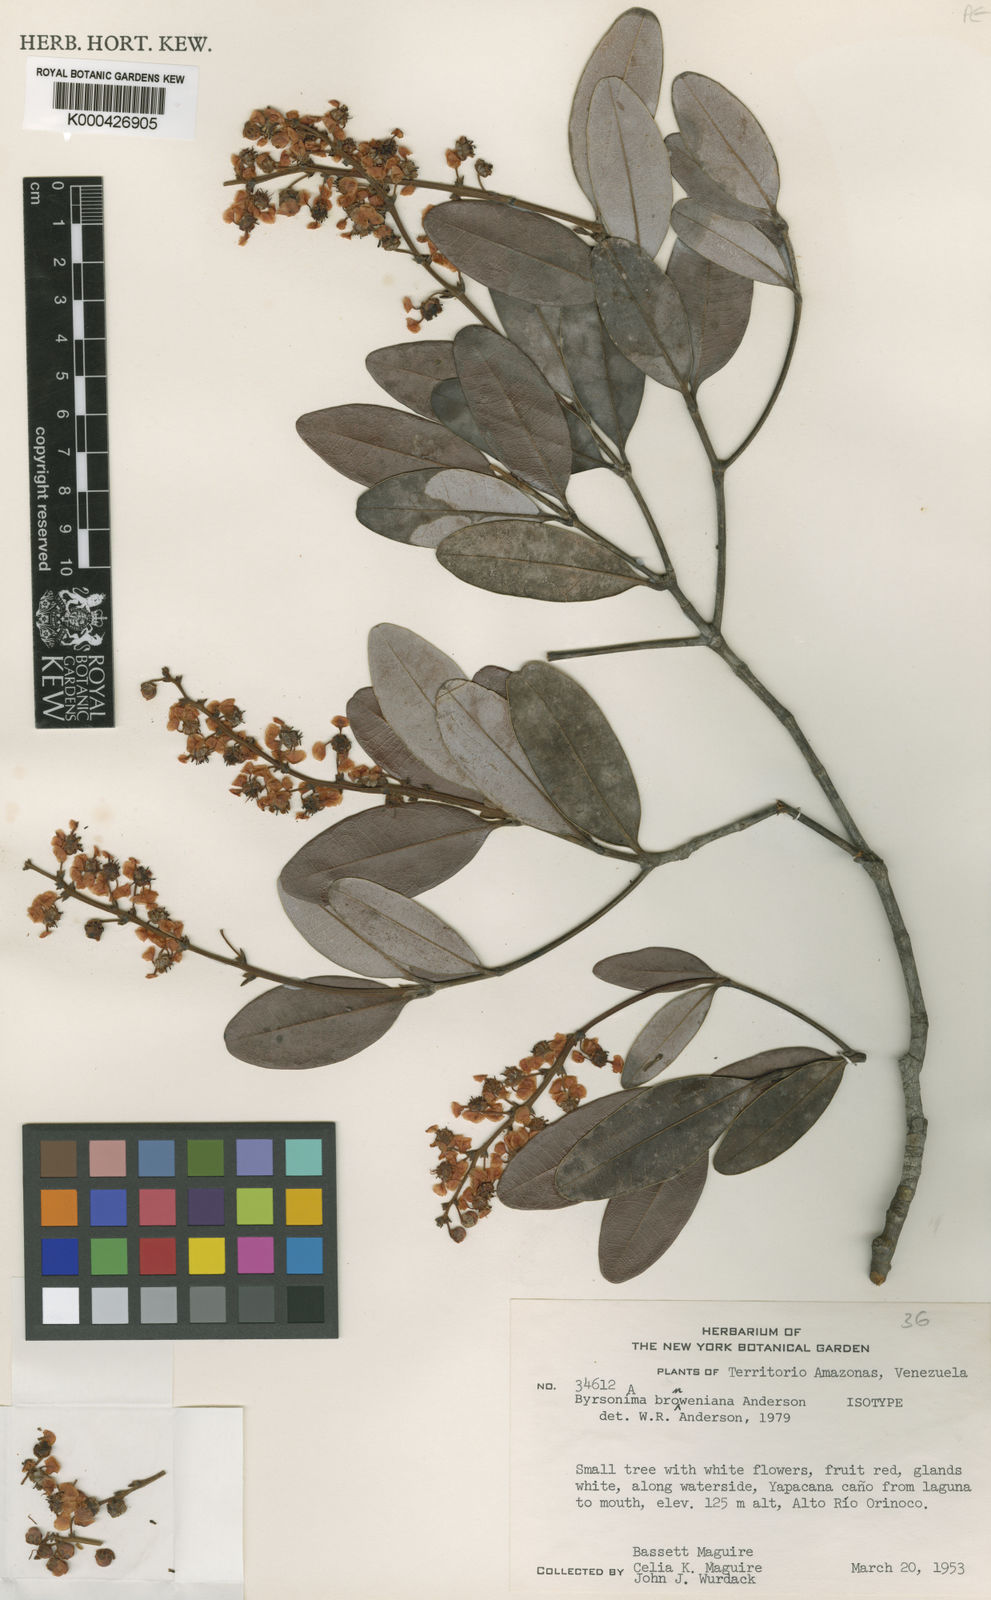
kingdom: Plantae
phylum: Tracheophyta
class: Magnoliopsida
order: Malpighiales
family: Malpighiaceae
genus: Byrsonima
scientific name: Byrsonima bronweniana
